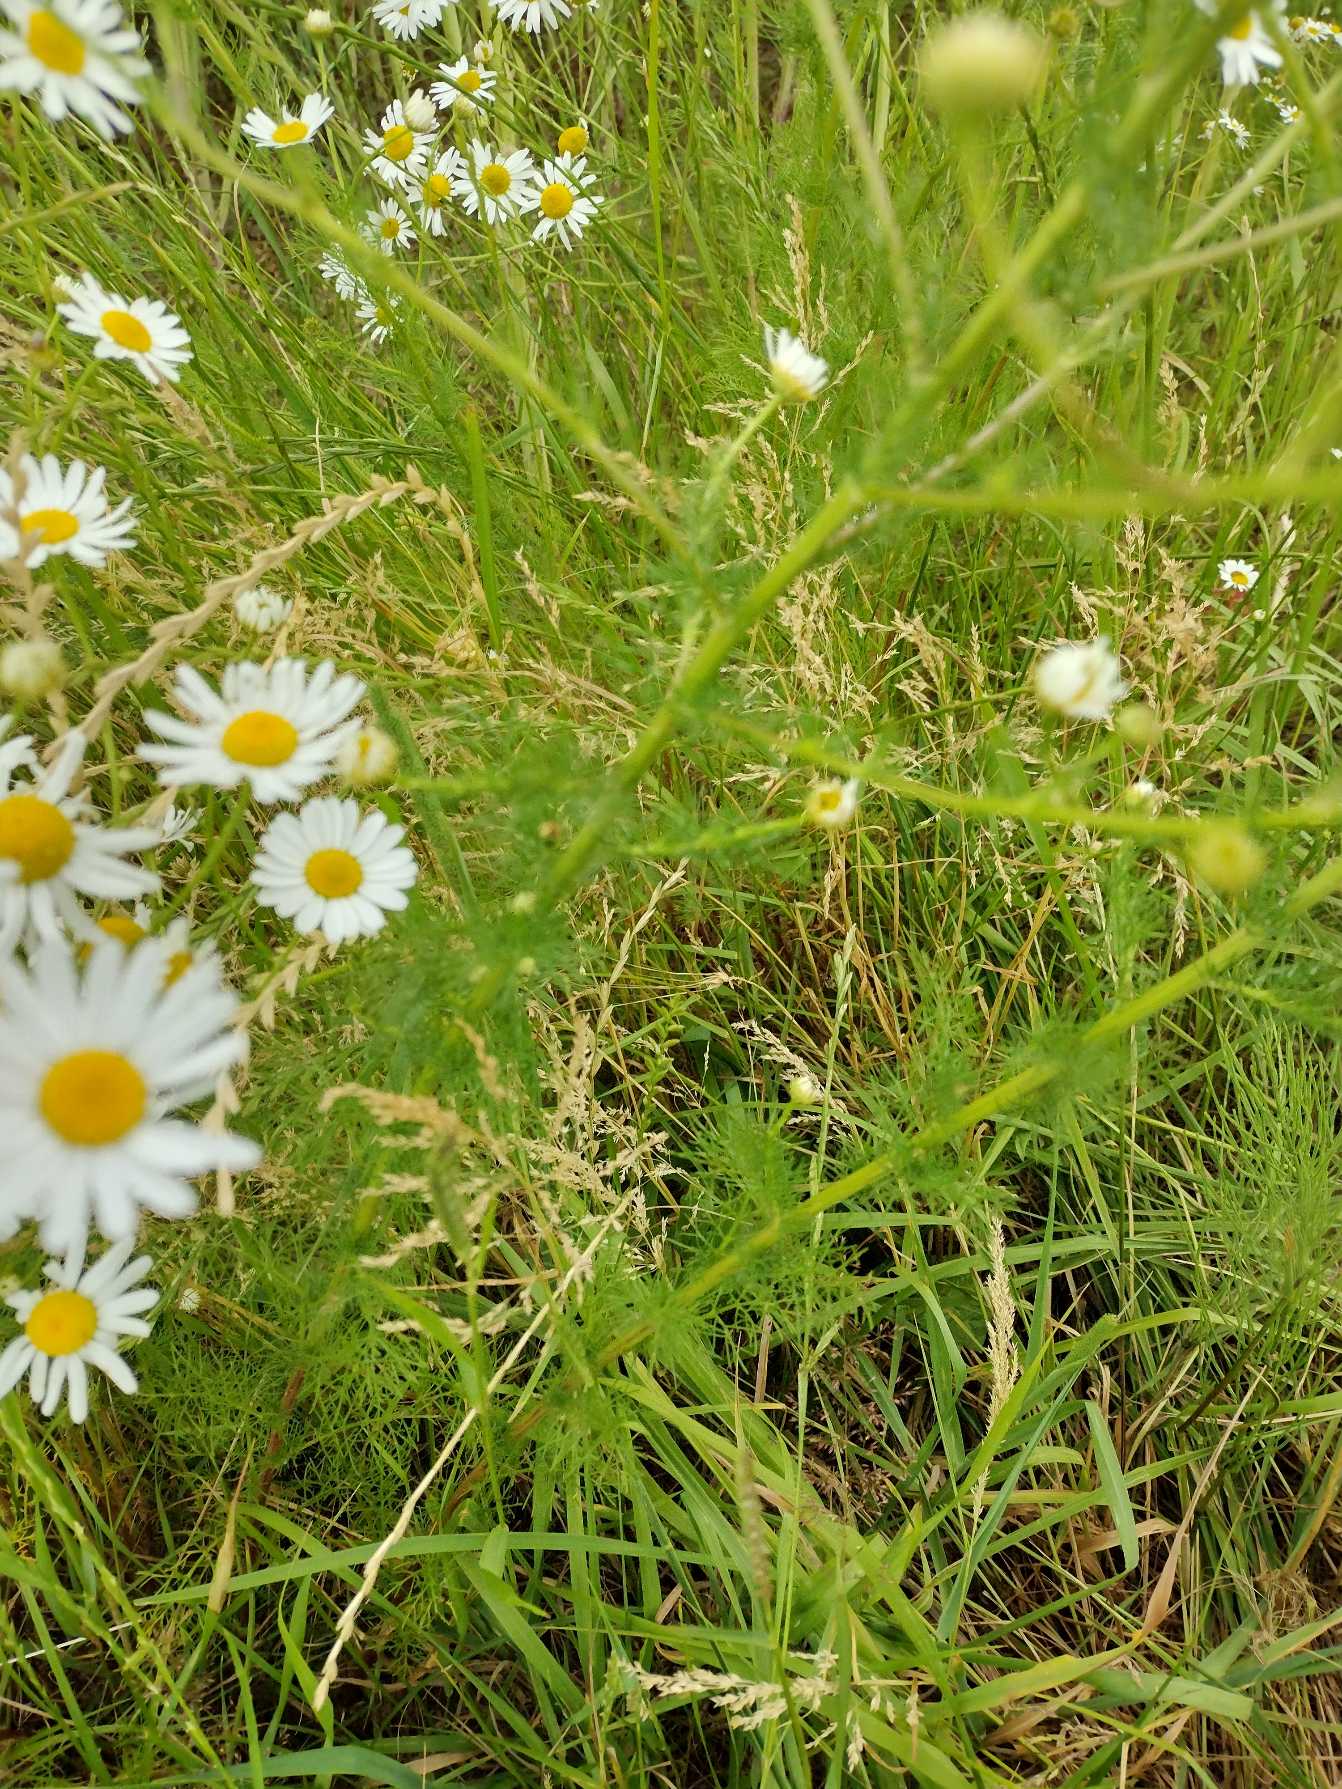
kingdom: Plantae
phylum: Tracheophyta
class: Magnoliopsida
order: Asterales
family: Asteraceae
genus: Tripleurospermum
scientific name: Tripleurospermum inodorum
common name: Lugtløs kamille
